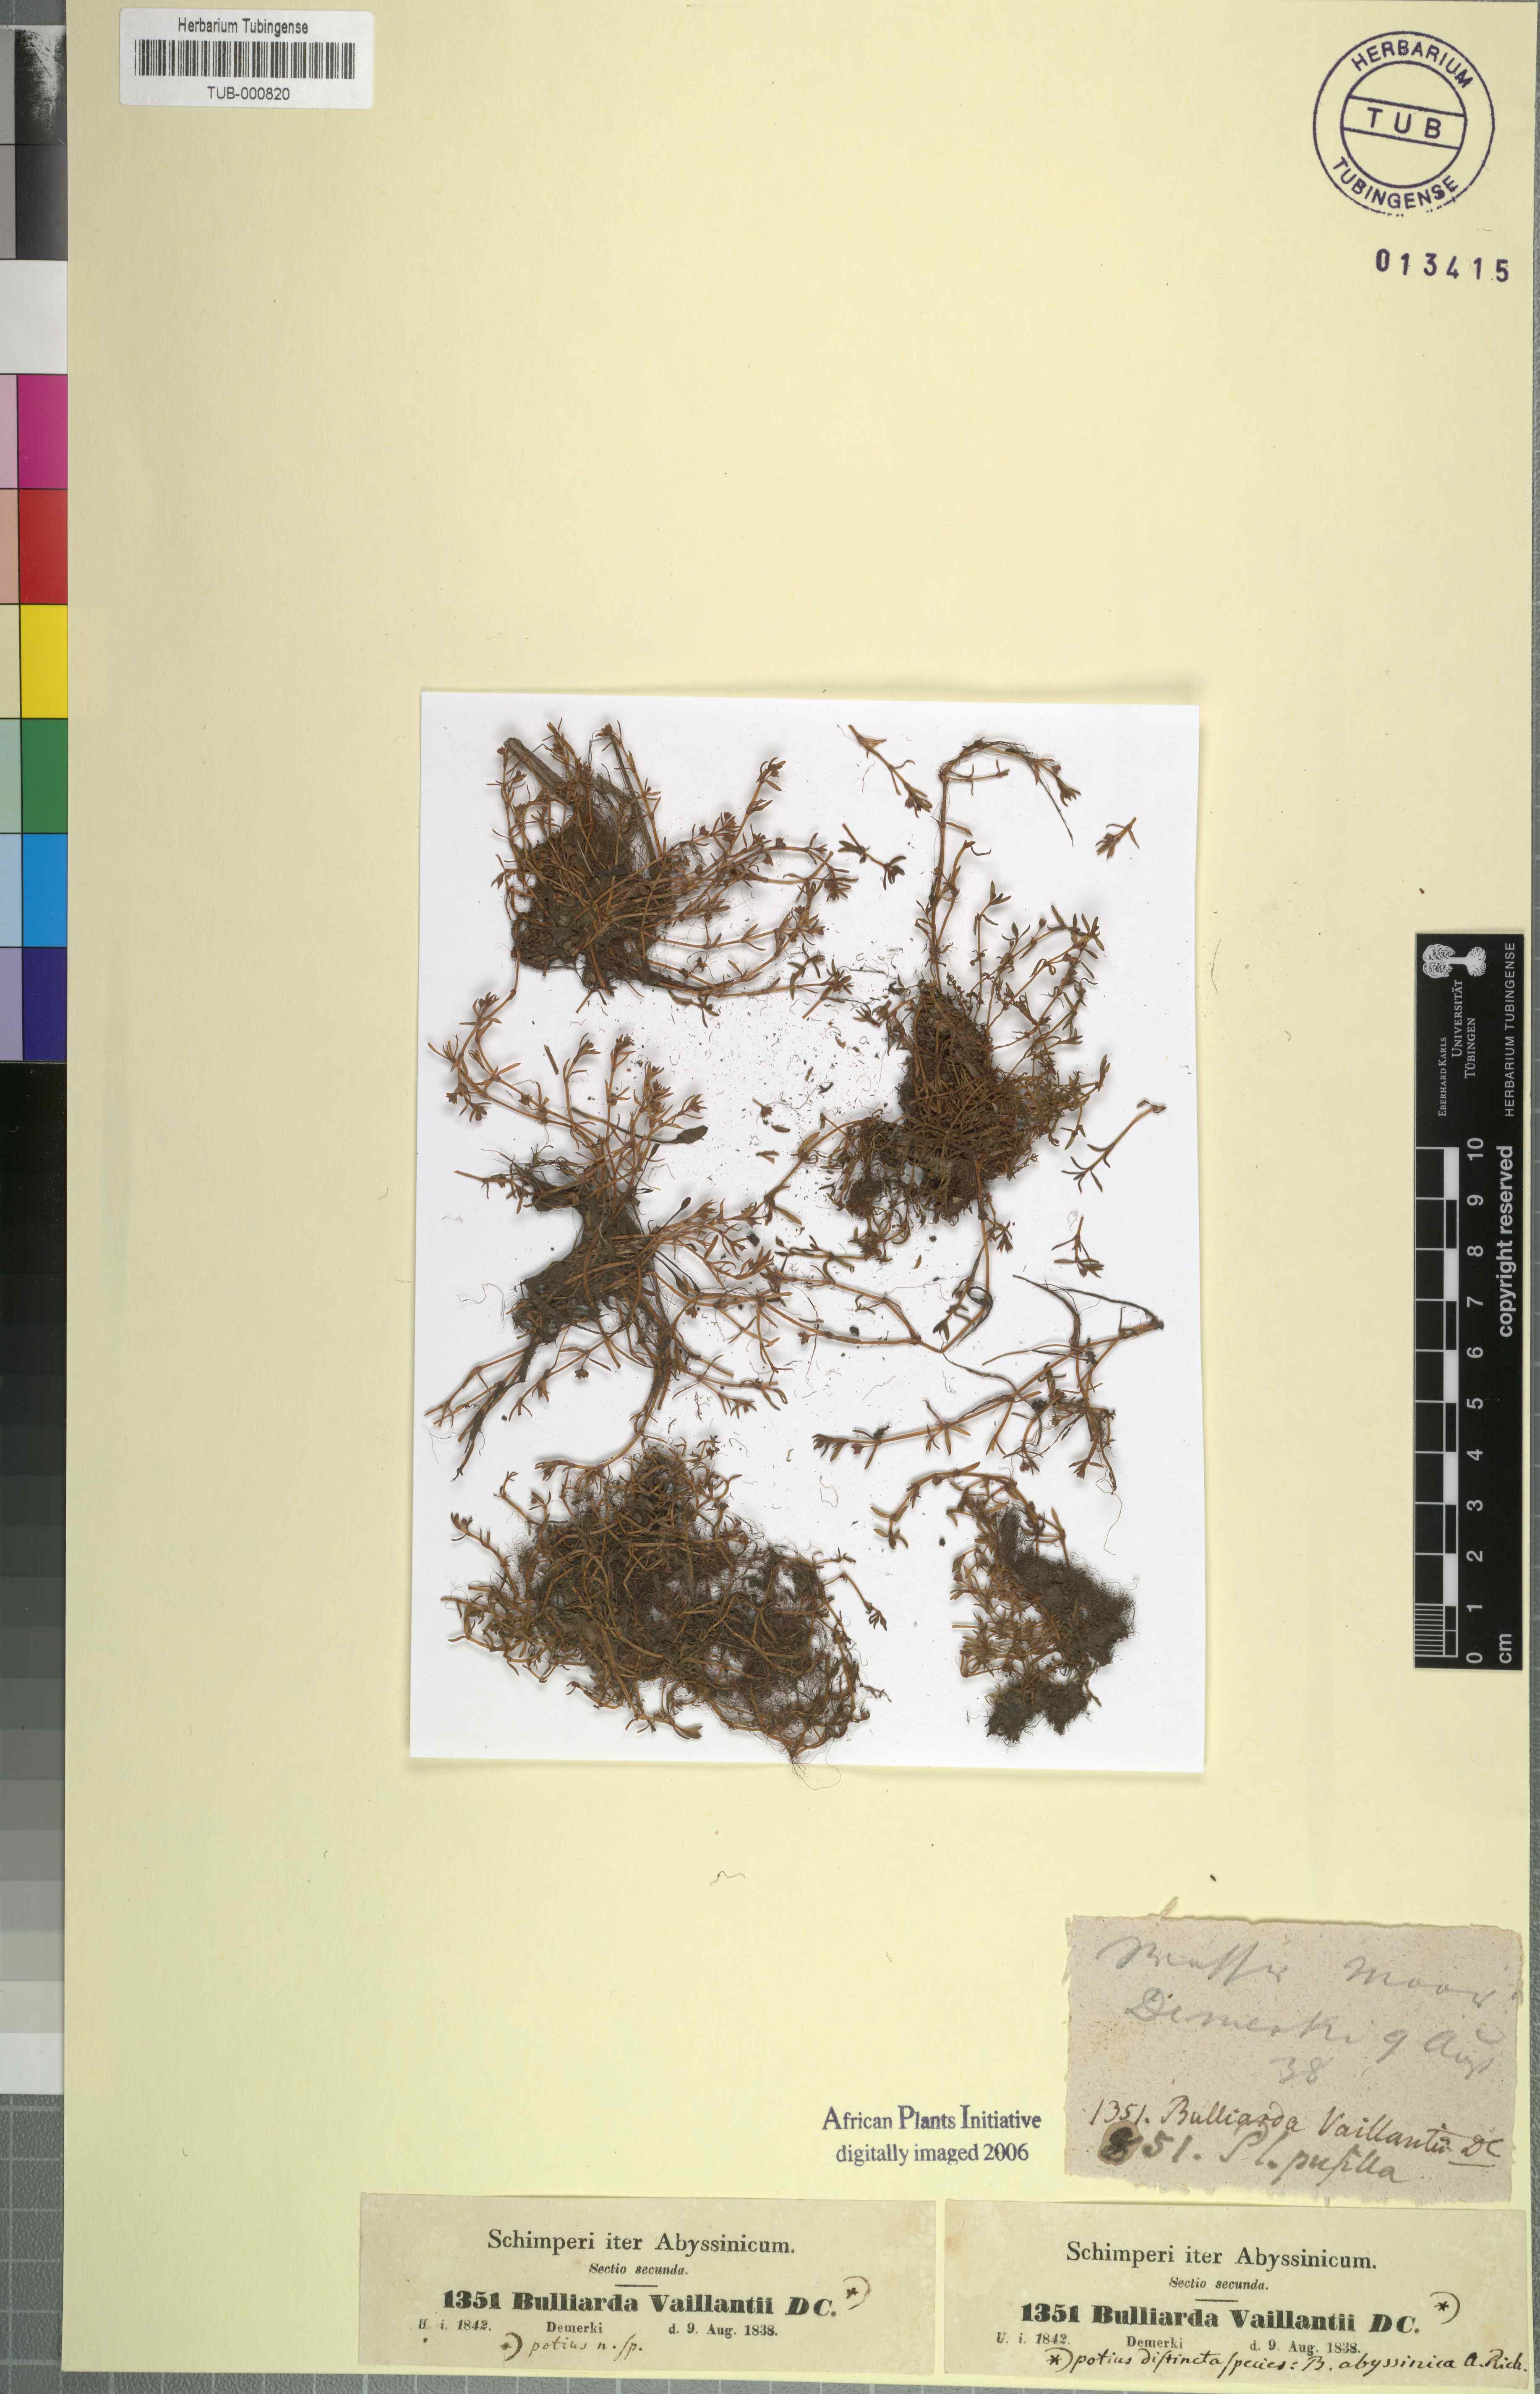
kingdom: Plantae
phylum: Tracheophyta
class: Magnoliopsida
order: Saxifragales
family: Crassulaceae
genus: Crassula
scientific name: Crassula vaillantii
